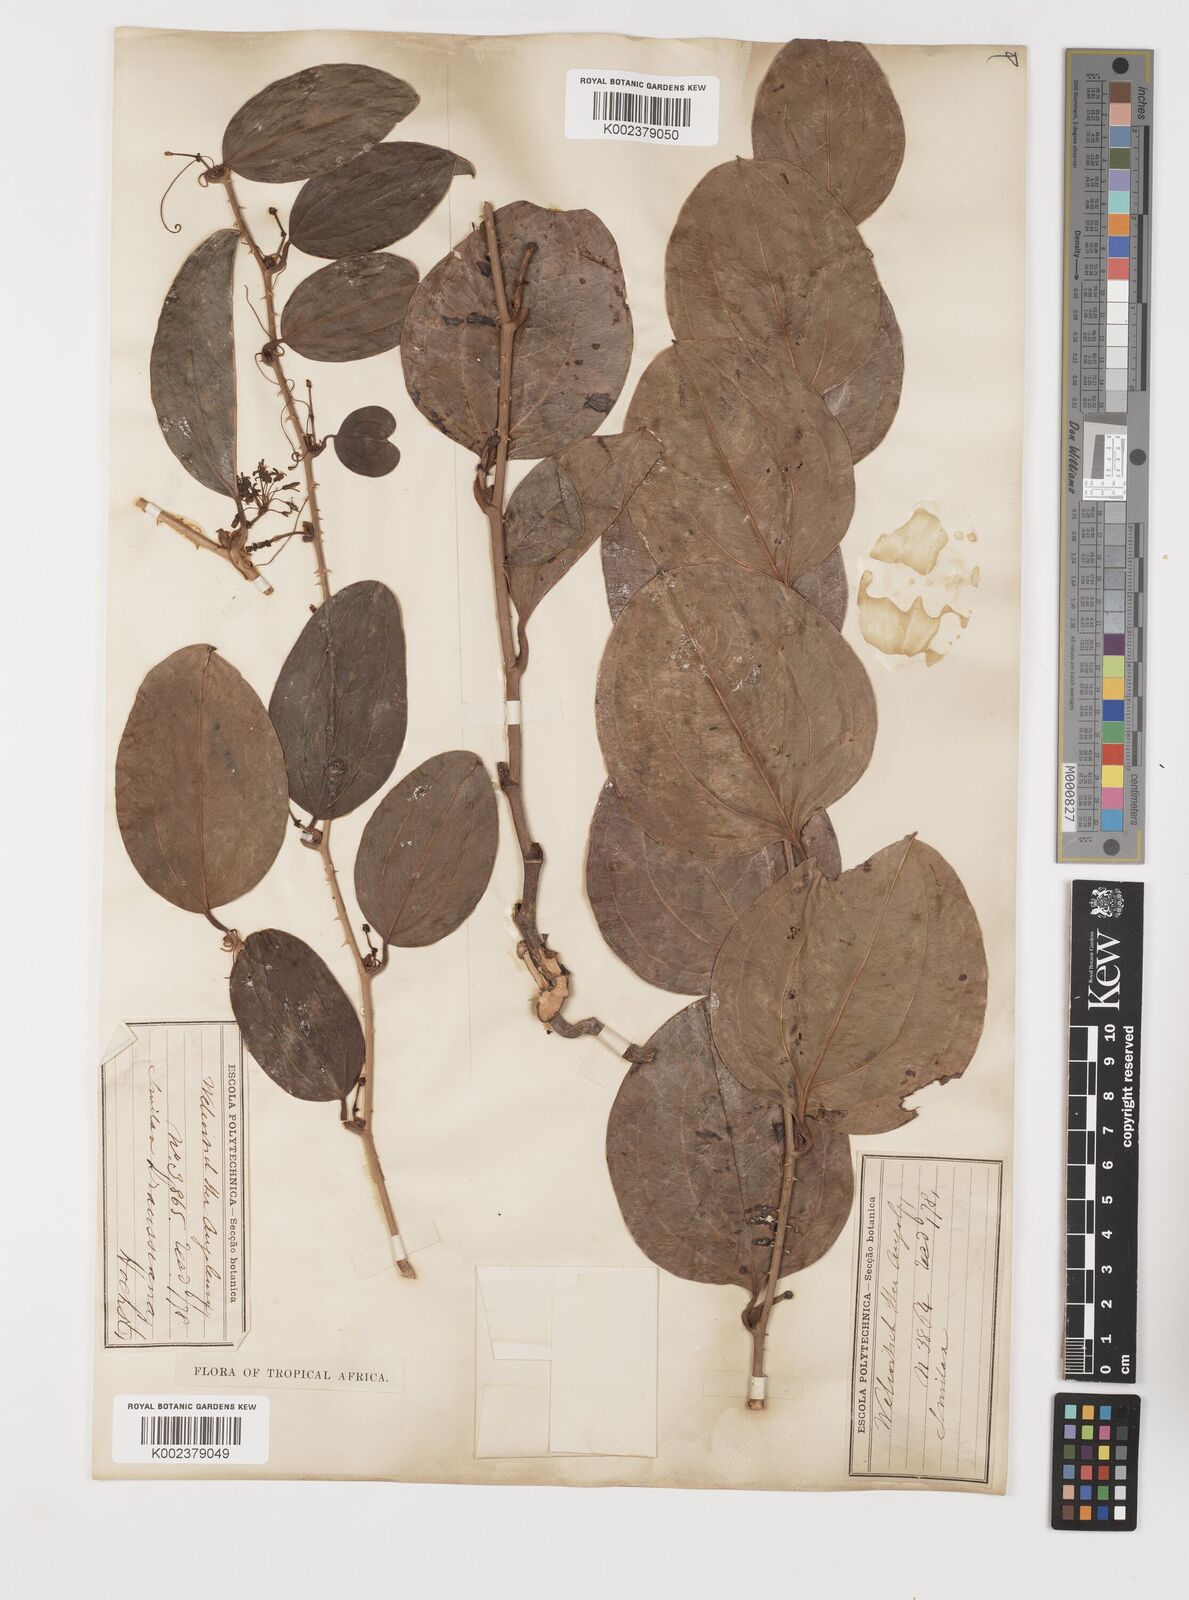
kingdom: Plantae
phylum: Tracheophyta
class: Liliopsida
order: Liliales
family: Smilacaceae
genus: Smilax
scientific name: Smilax anceps
